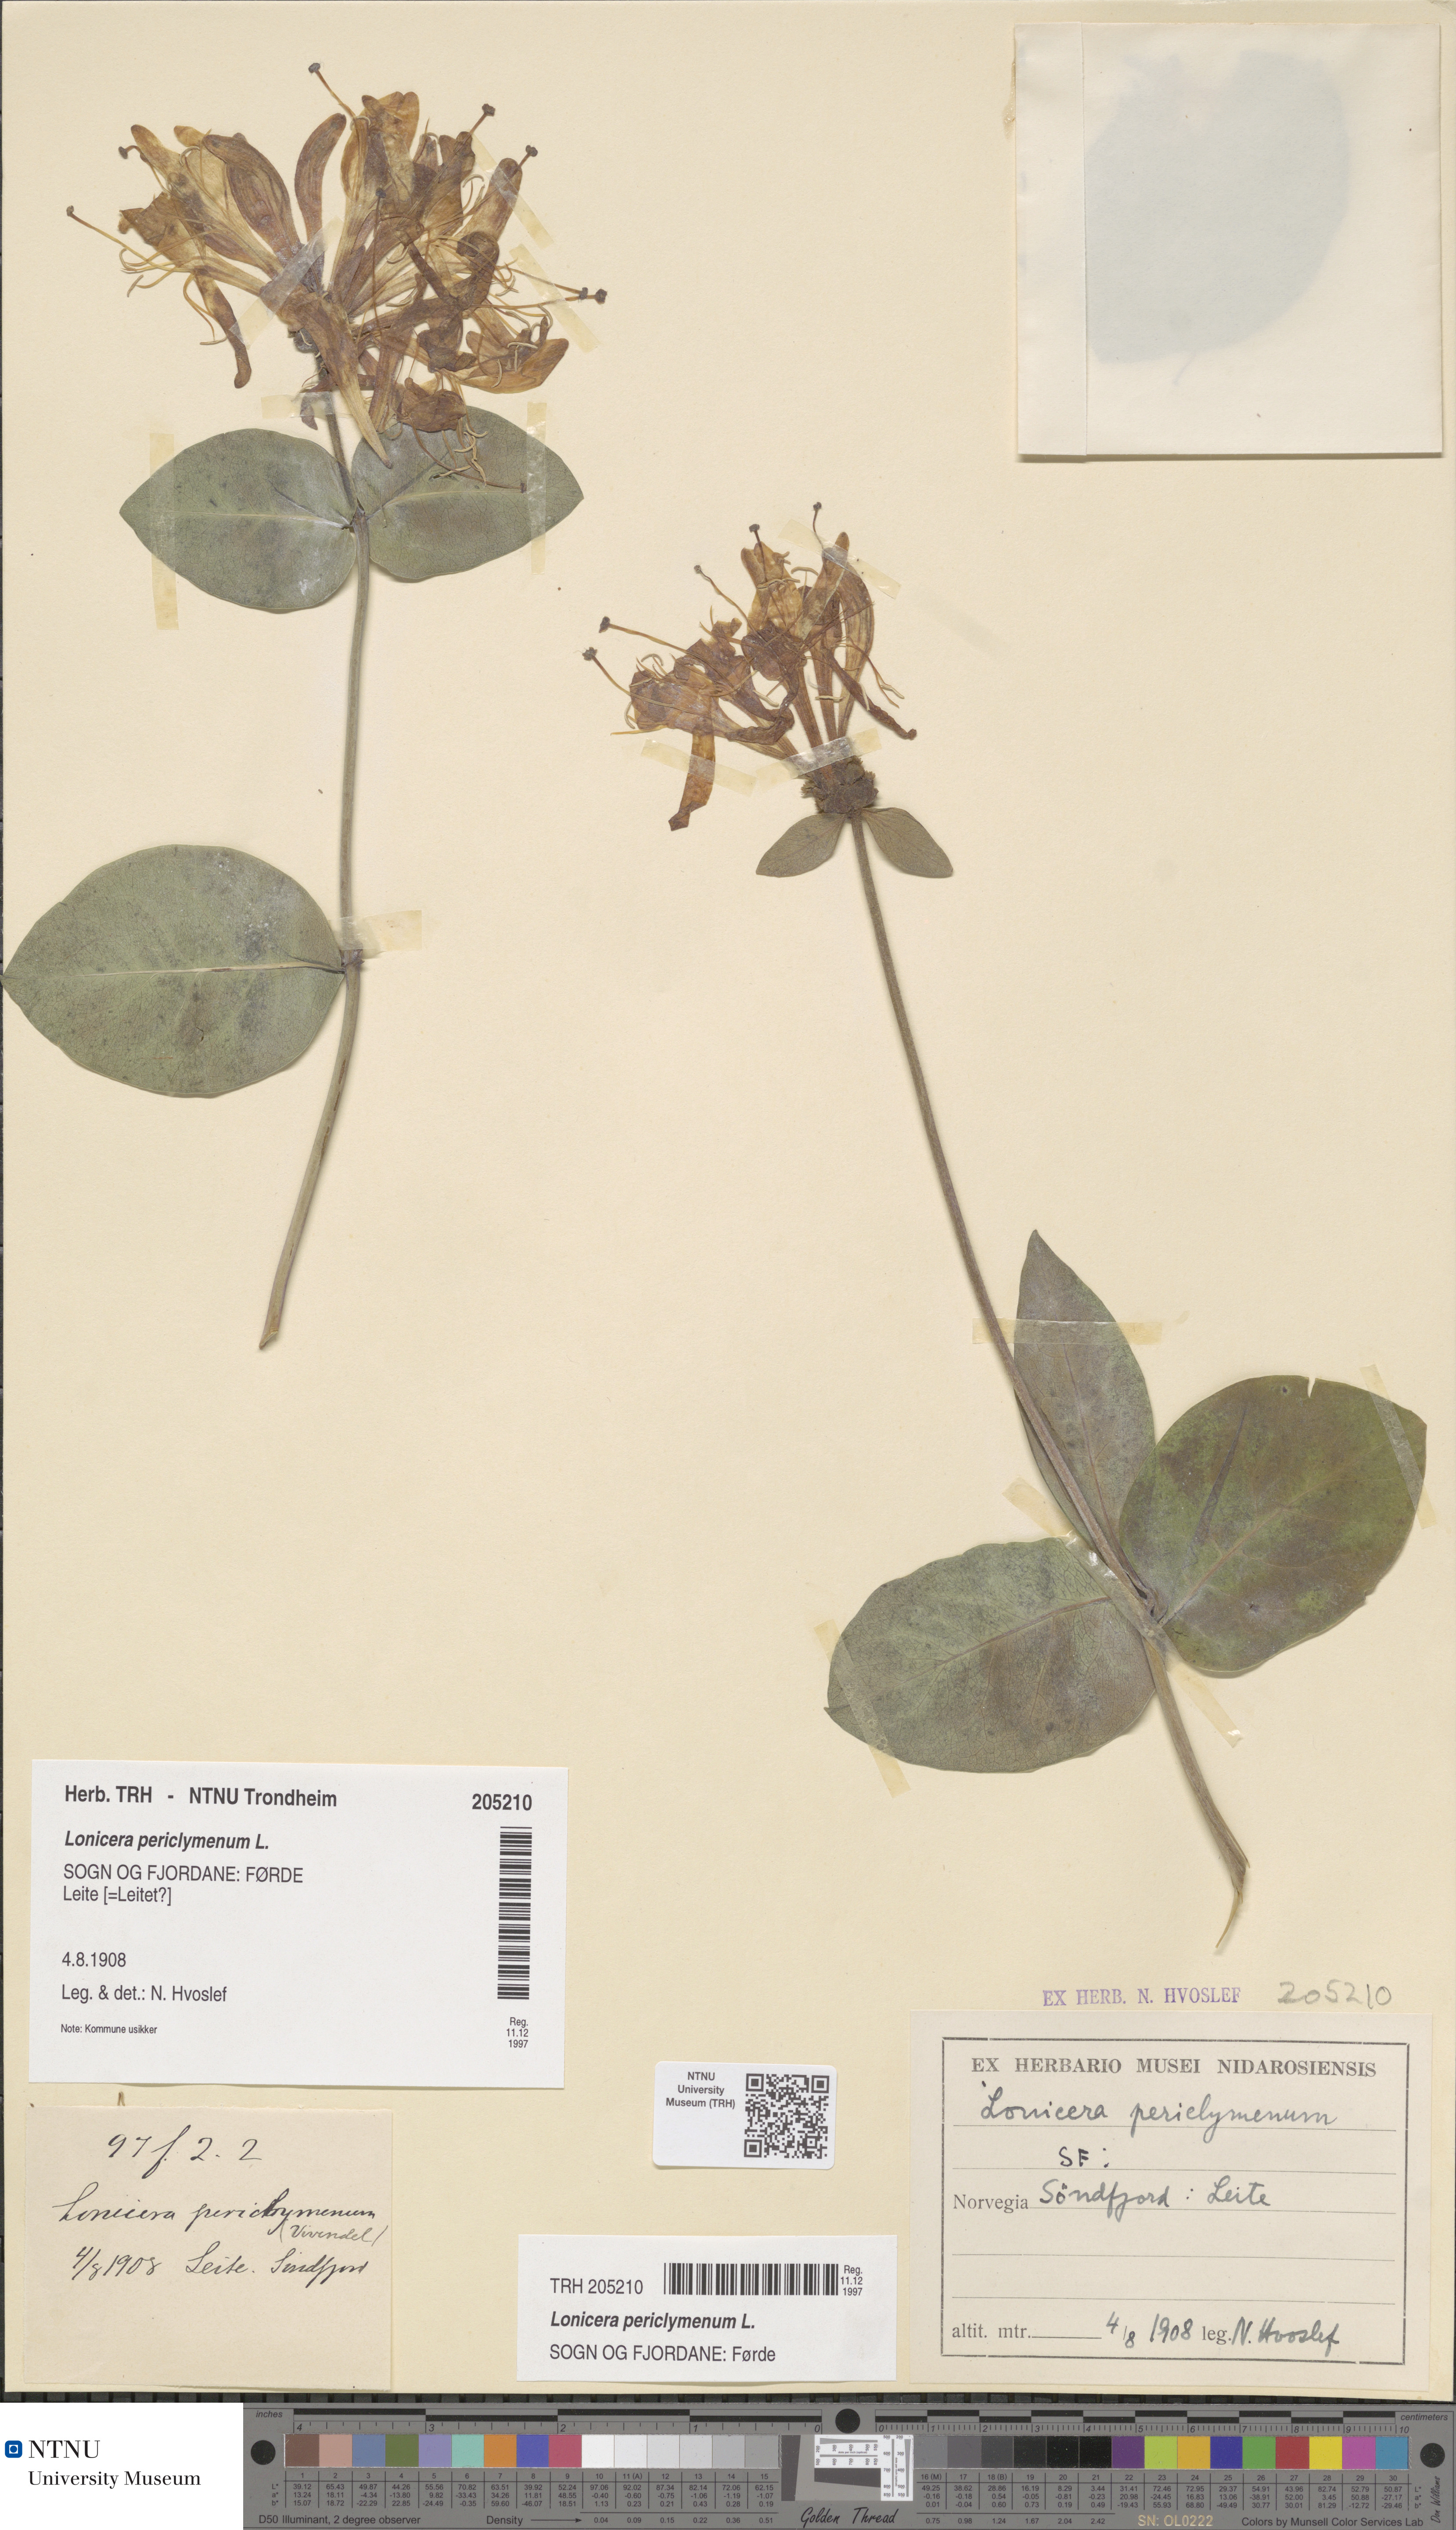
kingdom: Plantae
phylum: Tracheophyta
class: Magnoliopsida
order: Dipsacales
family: Caprifoliaceae
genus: Lonicera
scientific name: Lonicera periclymenum
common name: European honeysuckle
